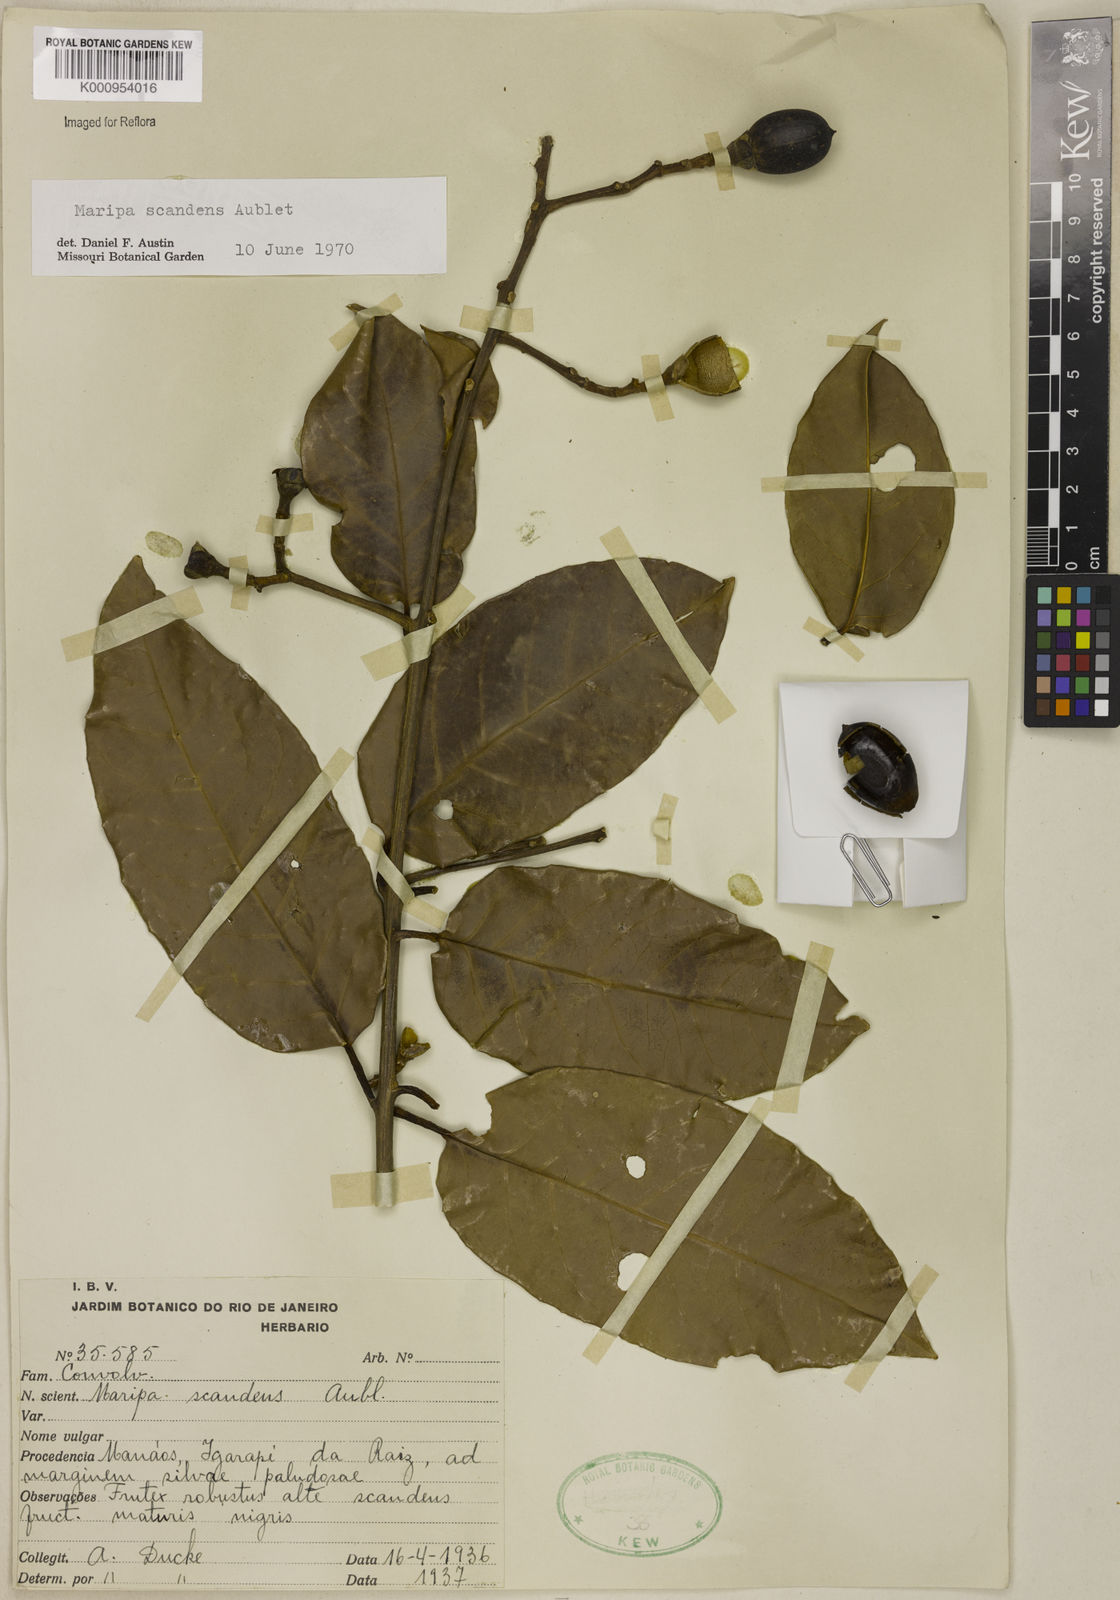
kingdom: Plantae
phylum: Tracheophyta
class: Magnoliopsida
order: Solanales
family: Convolvulaceae
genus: Maripa
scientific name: Maripa scandens
